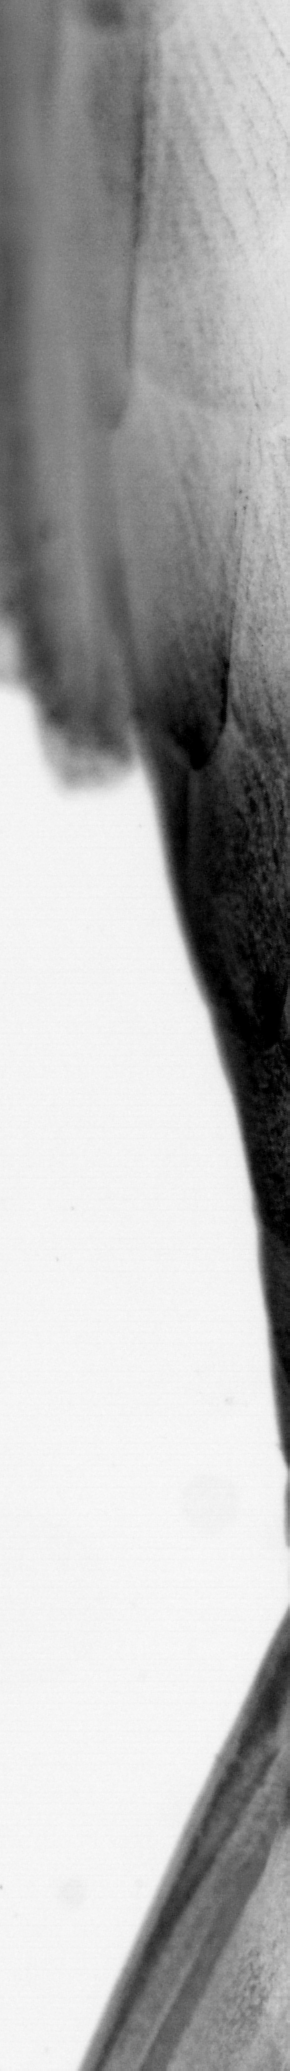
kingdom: Animalia
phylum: Chordata
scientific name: Chordata
